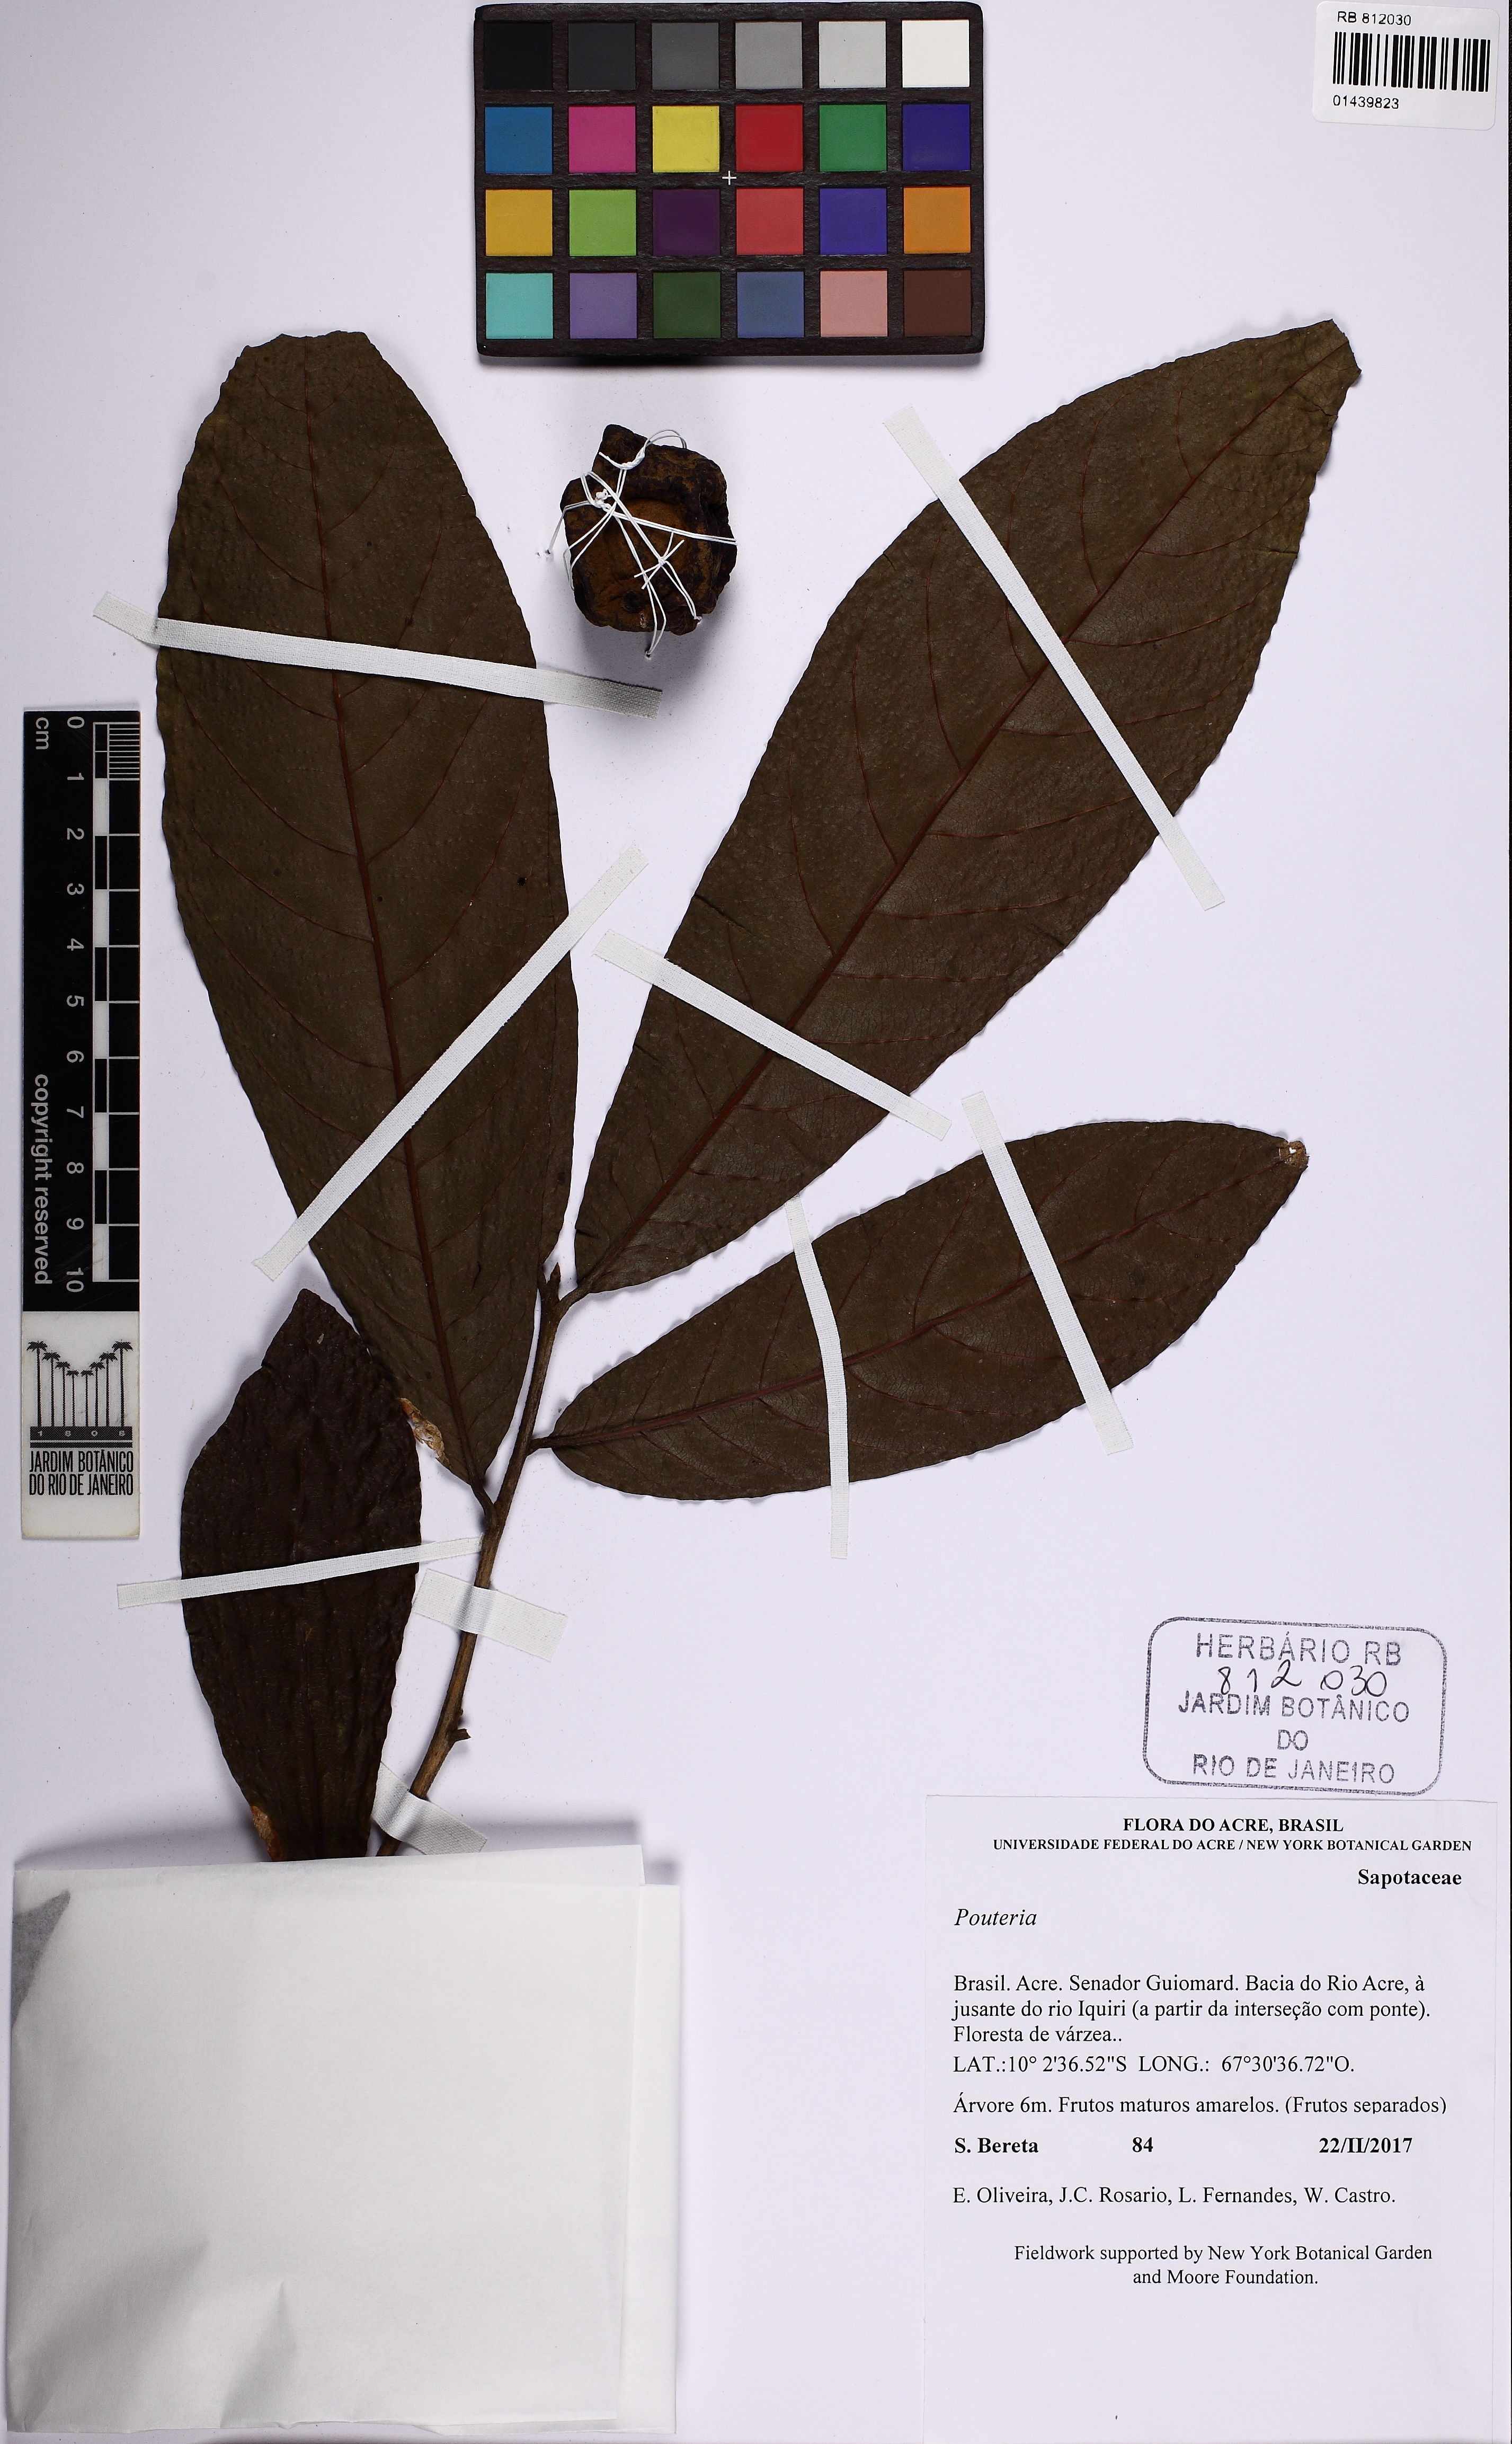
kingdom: Plantae
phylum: Tracheophyta
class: Magnoliopsida
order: Ericales
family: Sapotaceae
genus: Pouteria
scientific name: Pouteria
